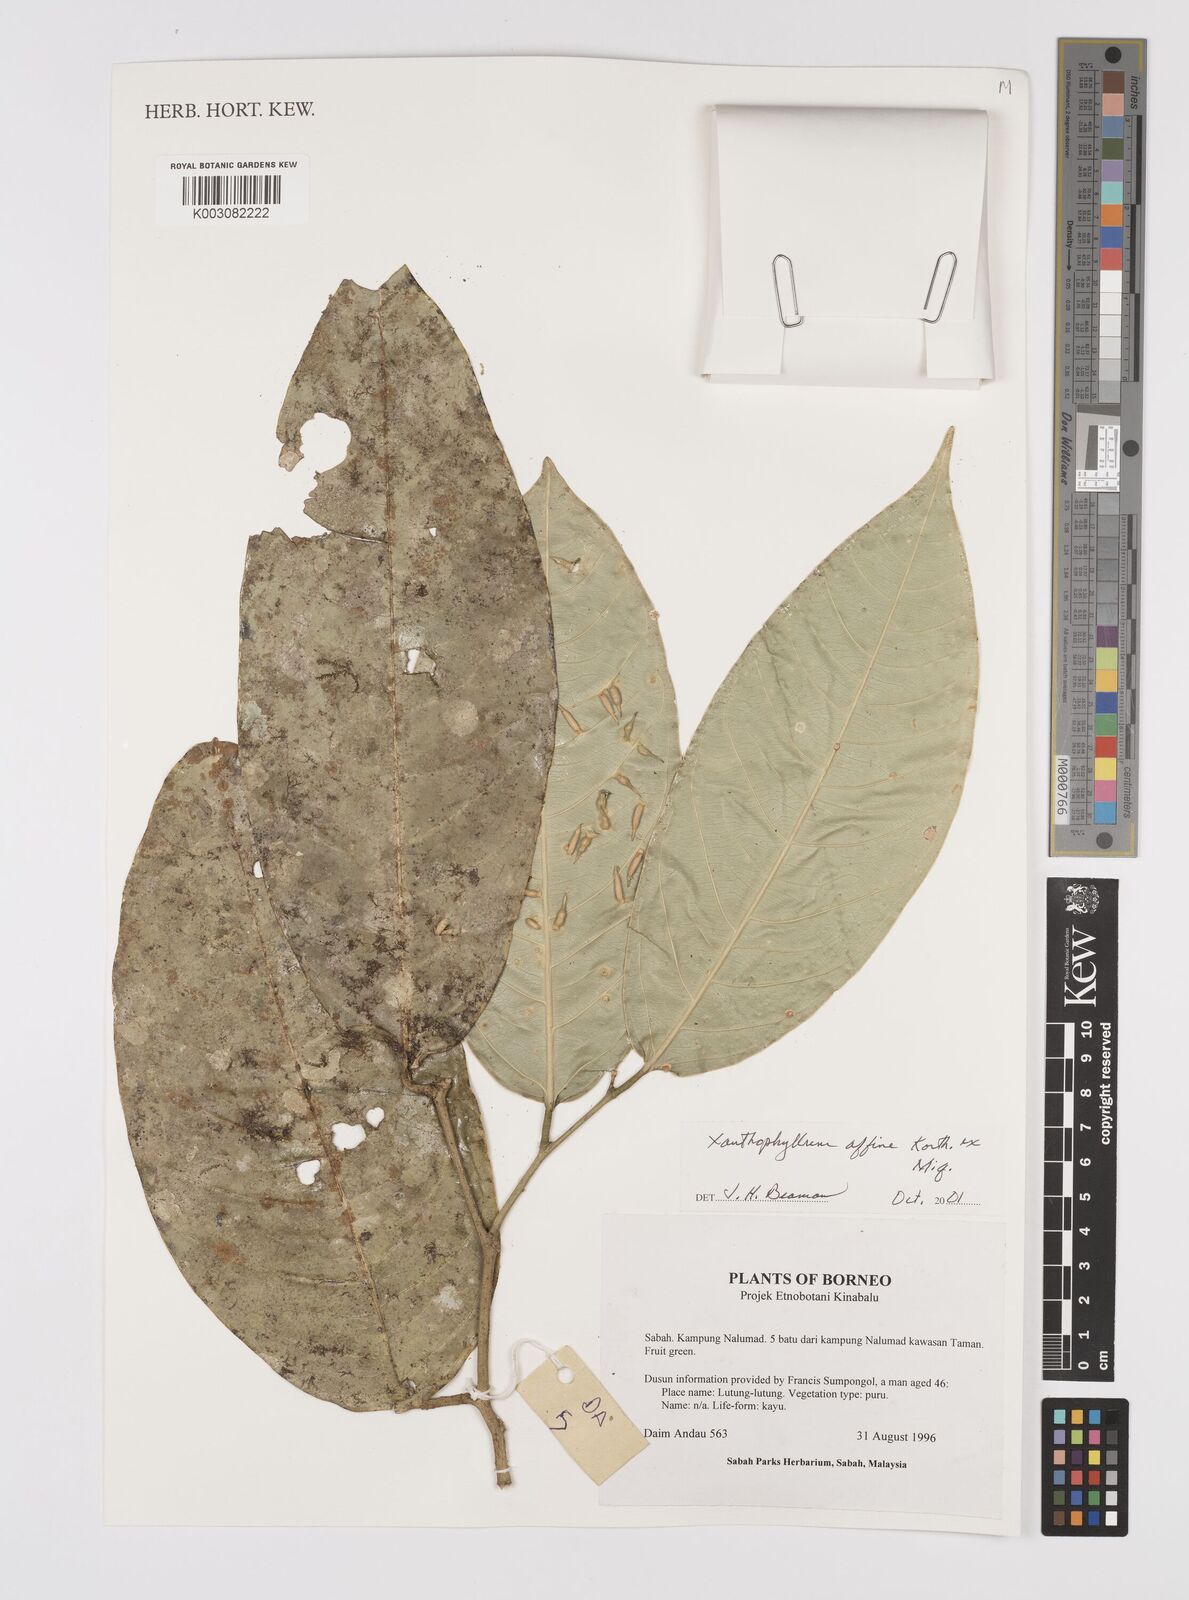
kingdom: Plantae
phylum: Tracheophyta
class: Magnoliopsida
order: Fabales
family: Polygalaceae
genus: Xanthophyllum
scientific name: Xanthophyllum flavescens
